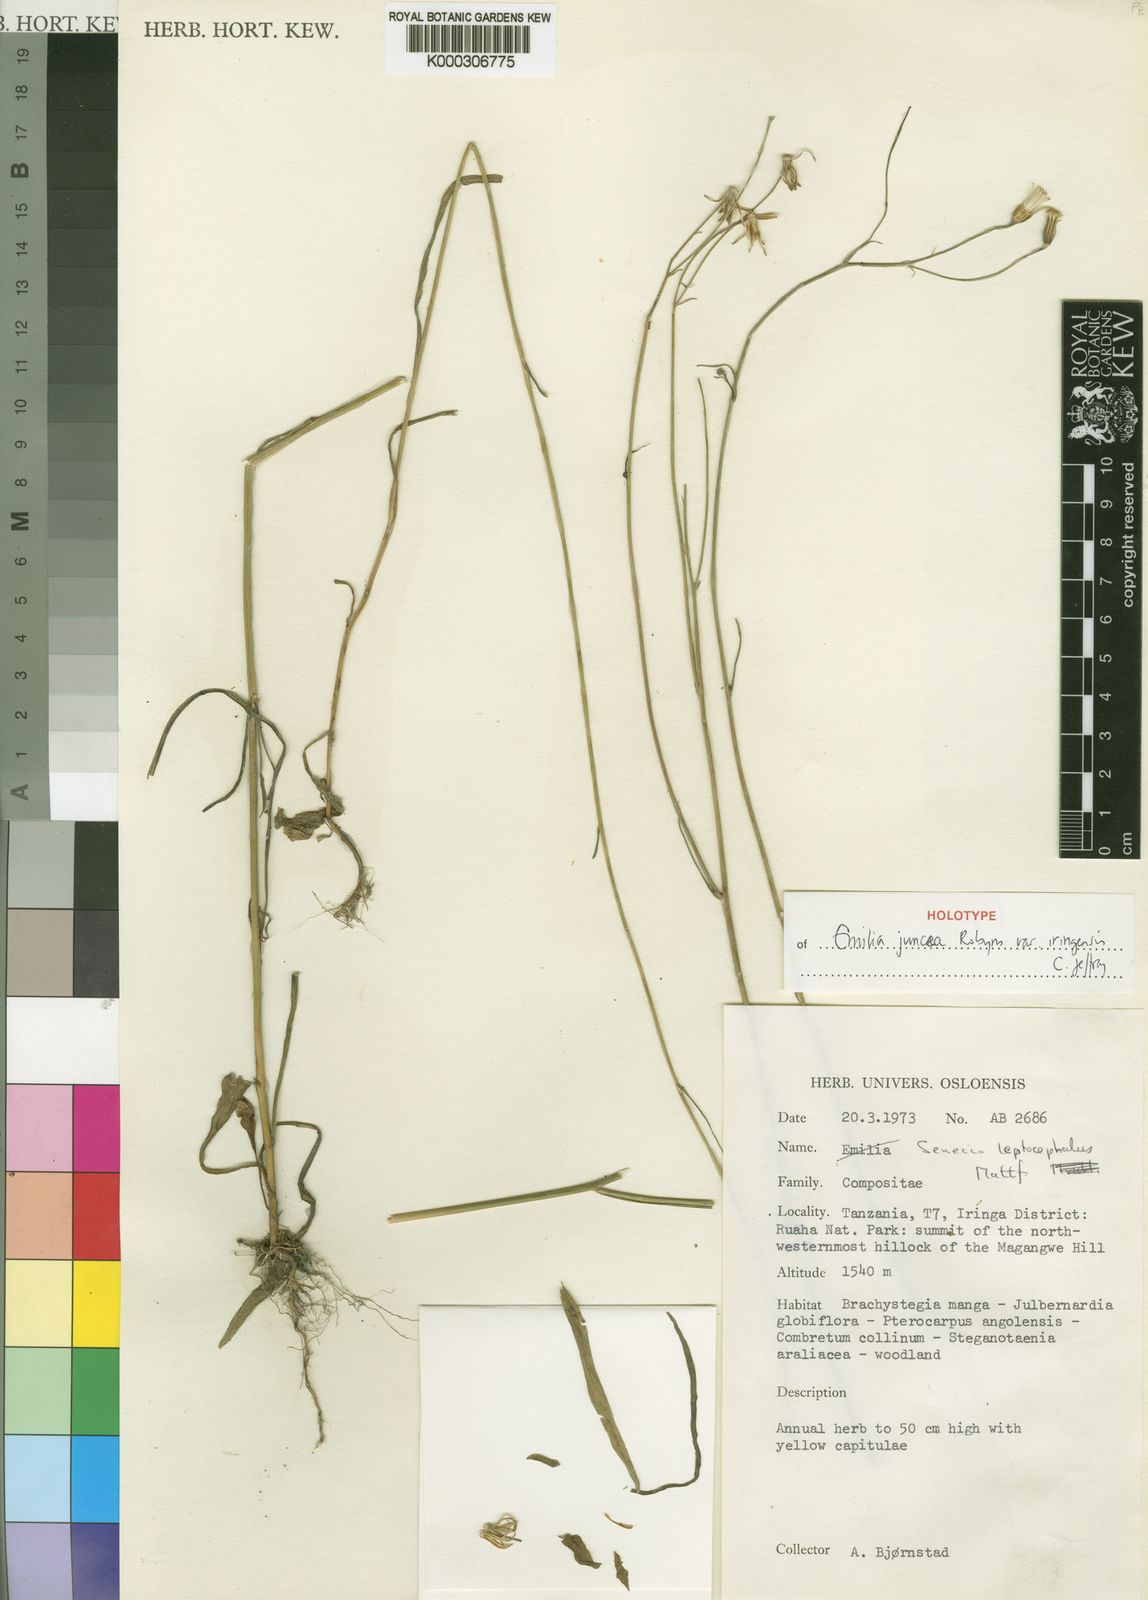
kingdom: Plantae
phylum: Tracheophyta
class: Magnoliopsida
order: Asterales
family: Asteraceae
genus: Emilia
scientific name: Emilia juncea
